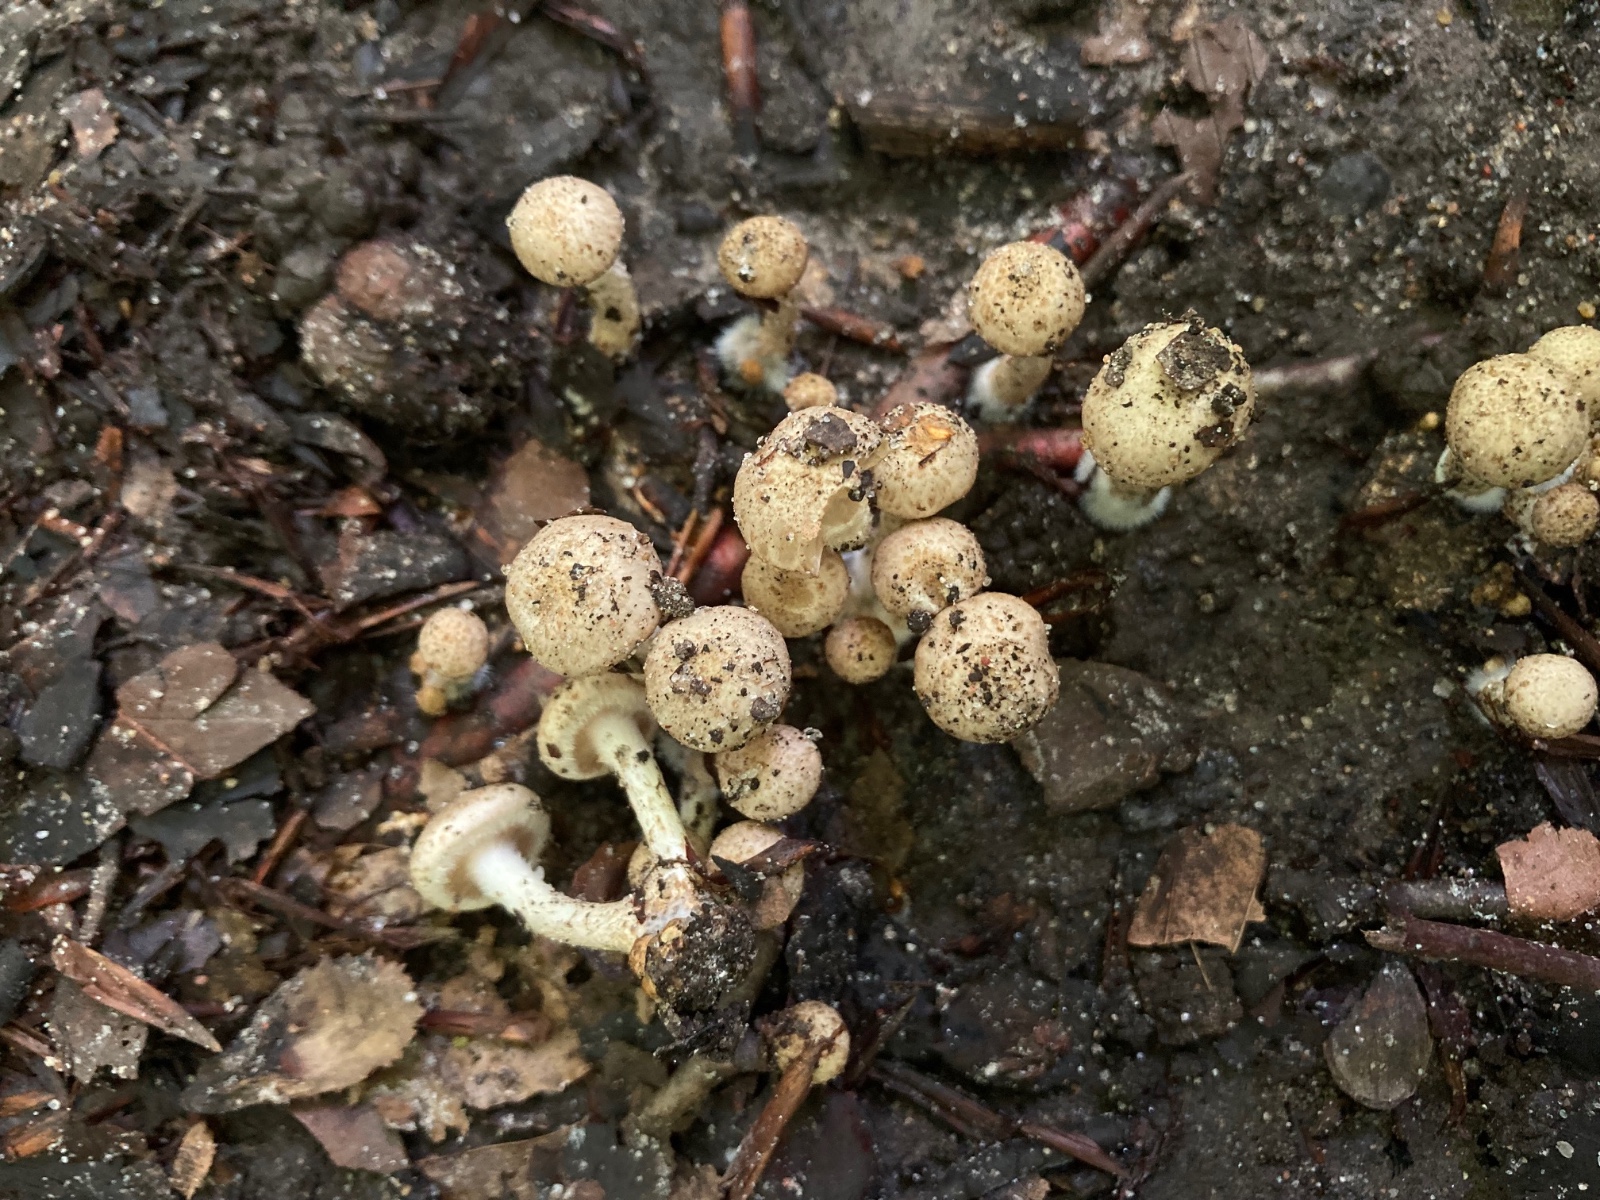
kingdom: Fungi
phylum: Basidiomycota
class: Agaricomycetes
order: Agaricales
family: Strophariaceae
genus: Pholiota
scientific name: Pholiota gummosa
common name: grøngul skælhat
